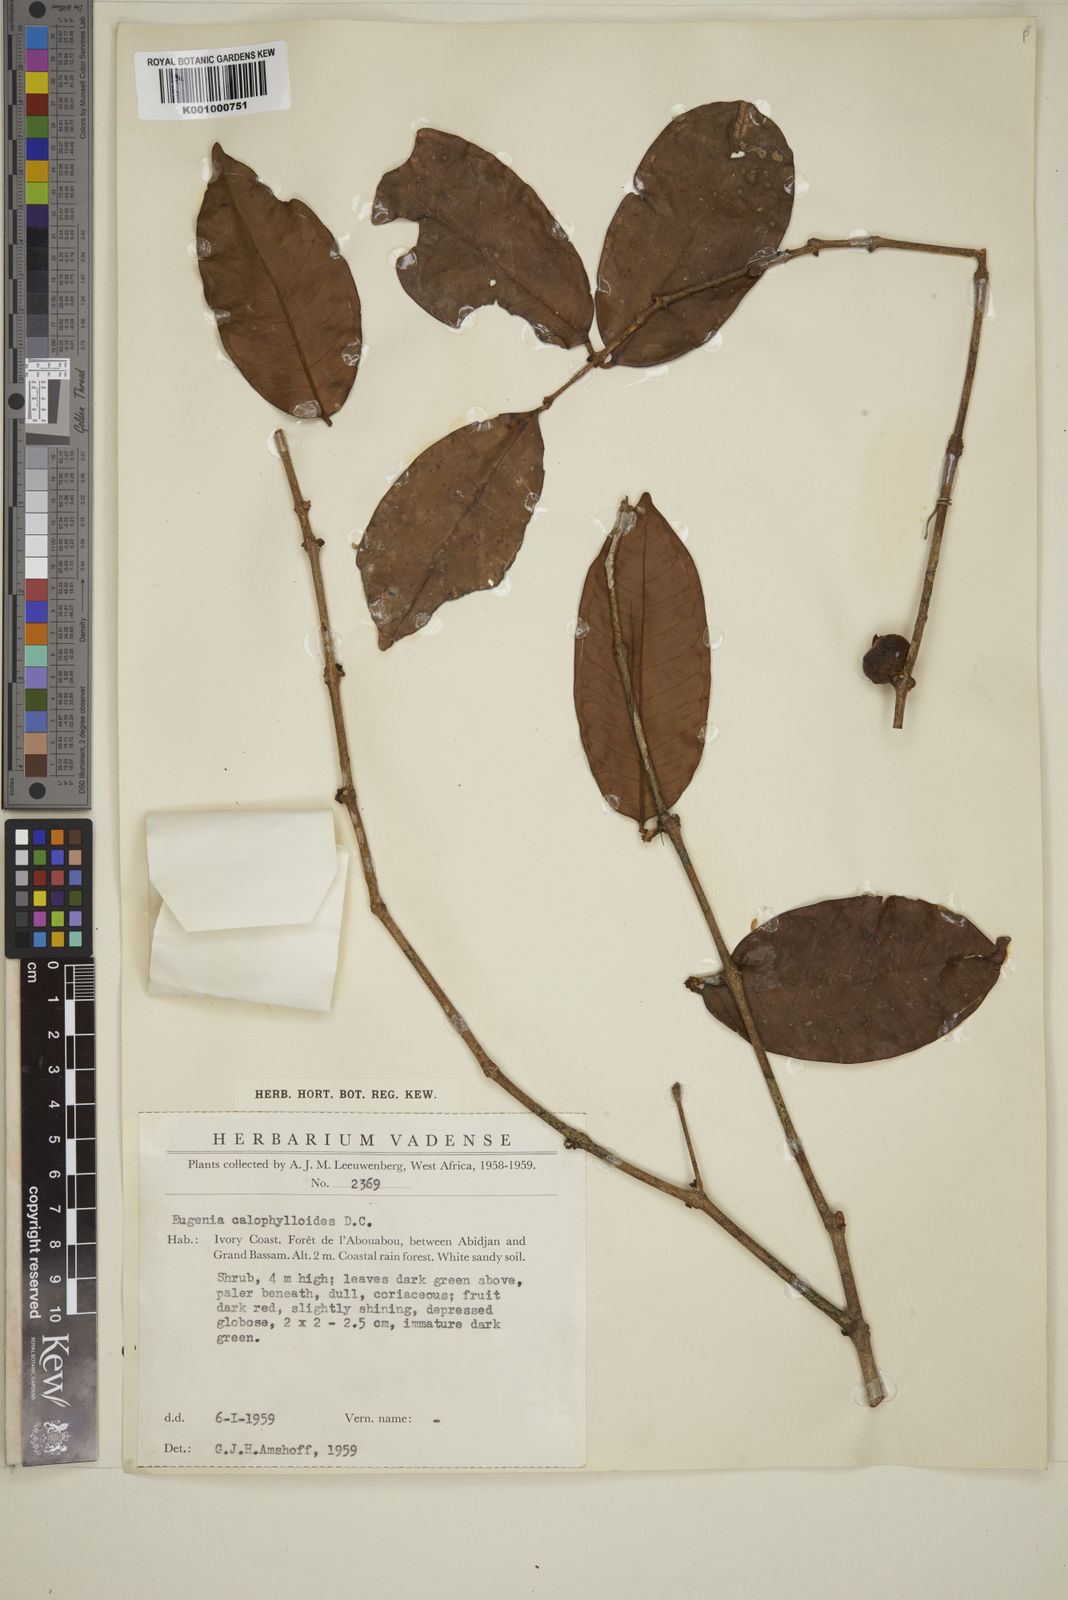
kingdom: Plantae
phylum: Tracheophyta
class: Magnoliopsida
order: Myrtales
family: Myrtaceae
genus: Eugenia
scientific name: Eugenia calophylloides
